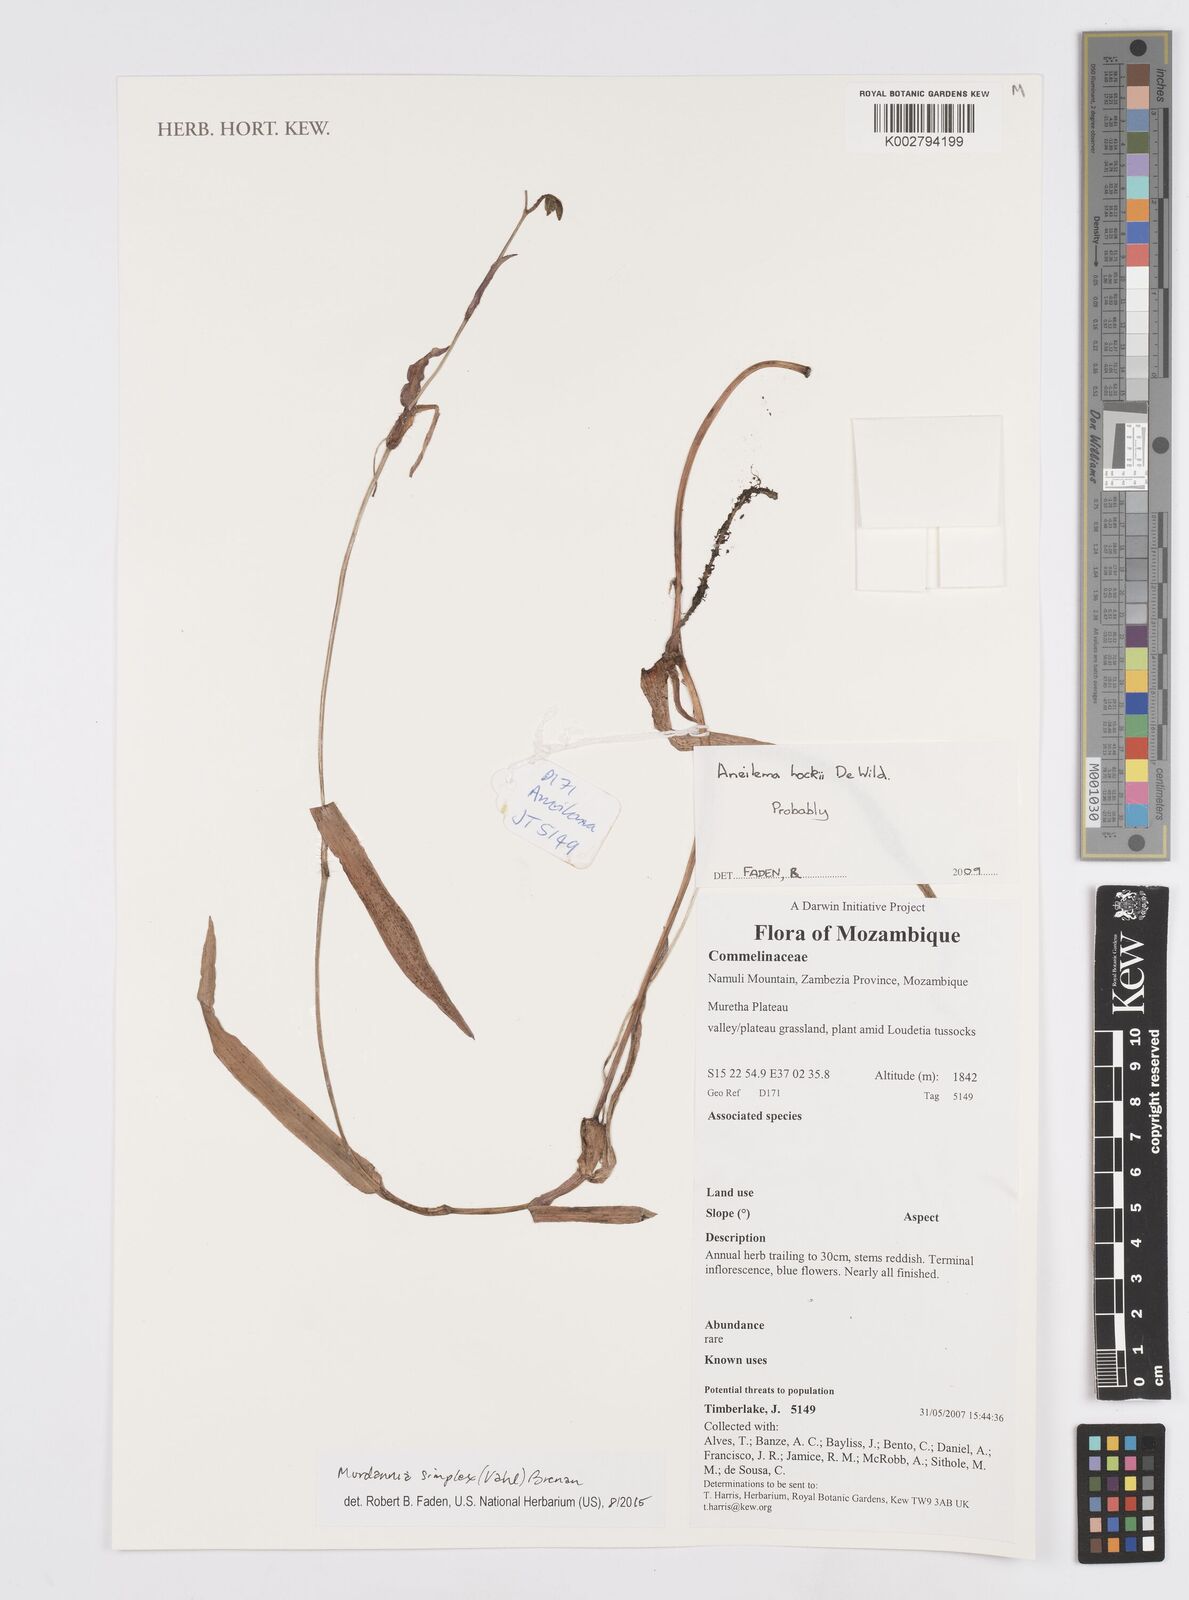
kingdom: Plantae
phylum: Tracheophyta
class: Liliopsida
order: Commelinales
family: Commelinaceae
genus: Murdannia
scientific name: Murdannia simplex
